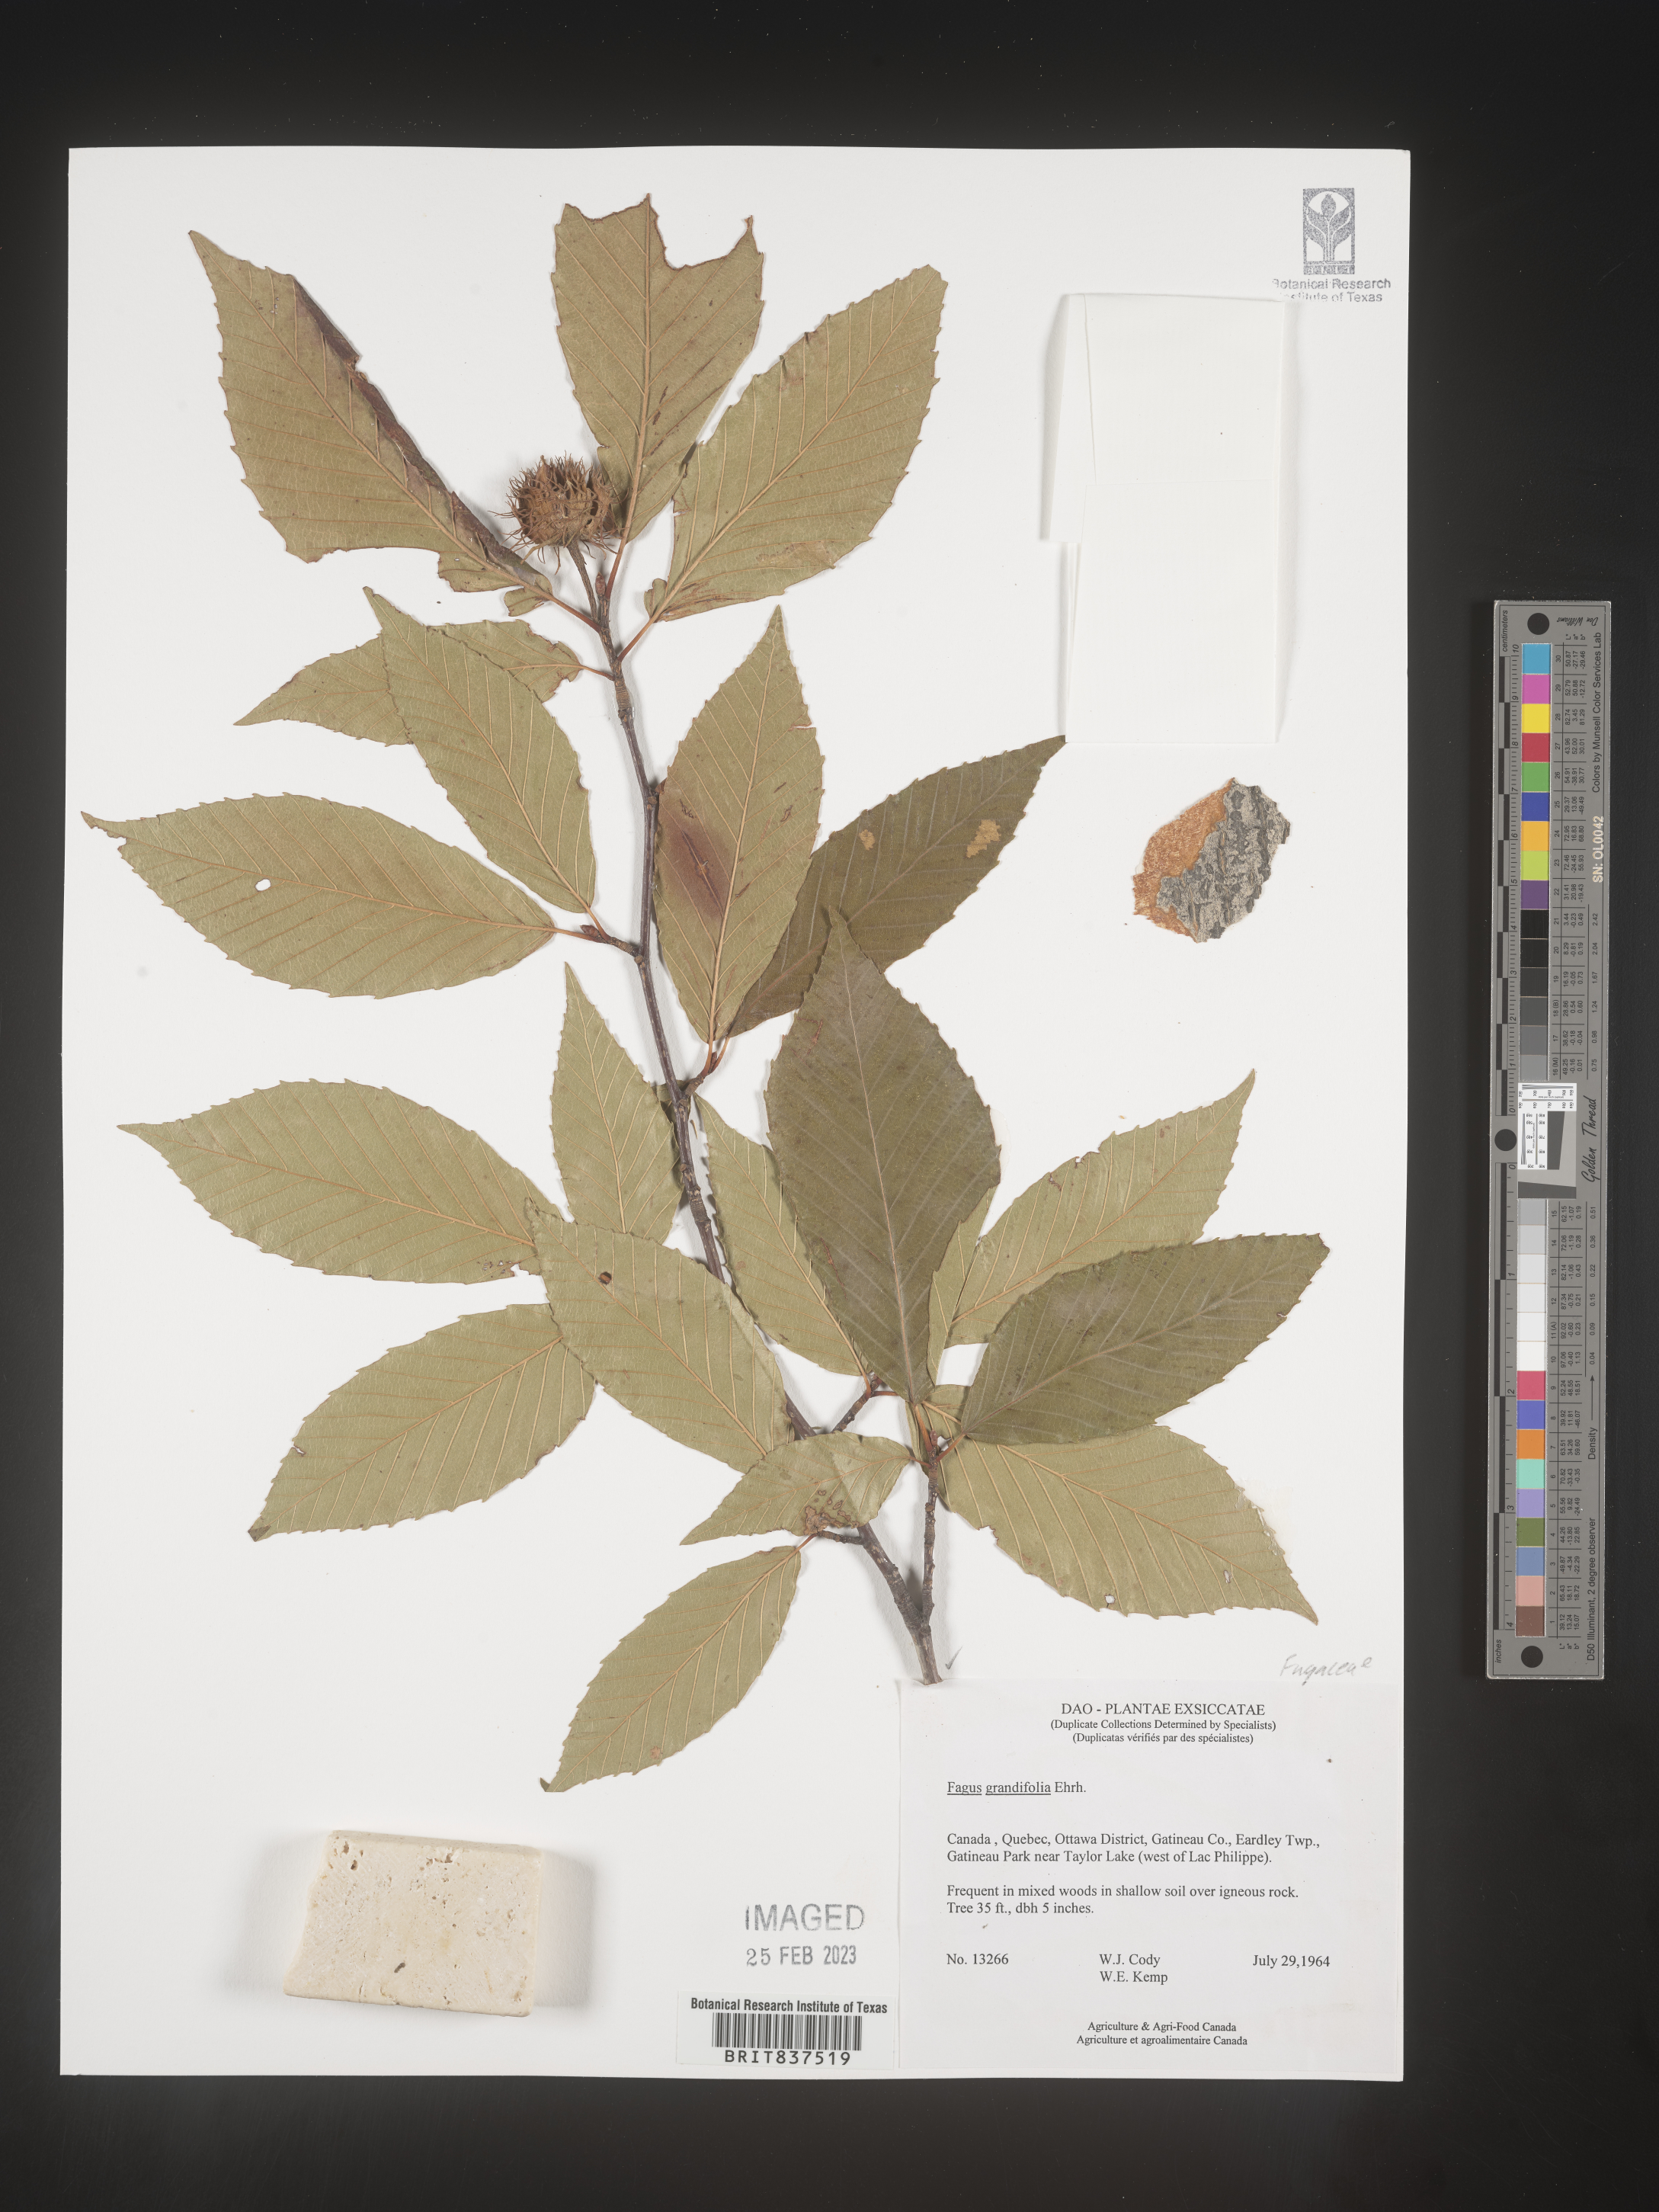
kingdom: Plantae
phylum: Tracheophyta
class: Magnoliopsida
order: Fagales
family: Fagaceae
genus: Fagus
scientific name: Fagus grandifolia
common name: American beech
